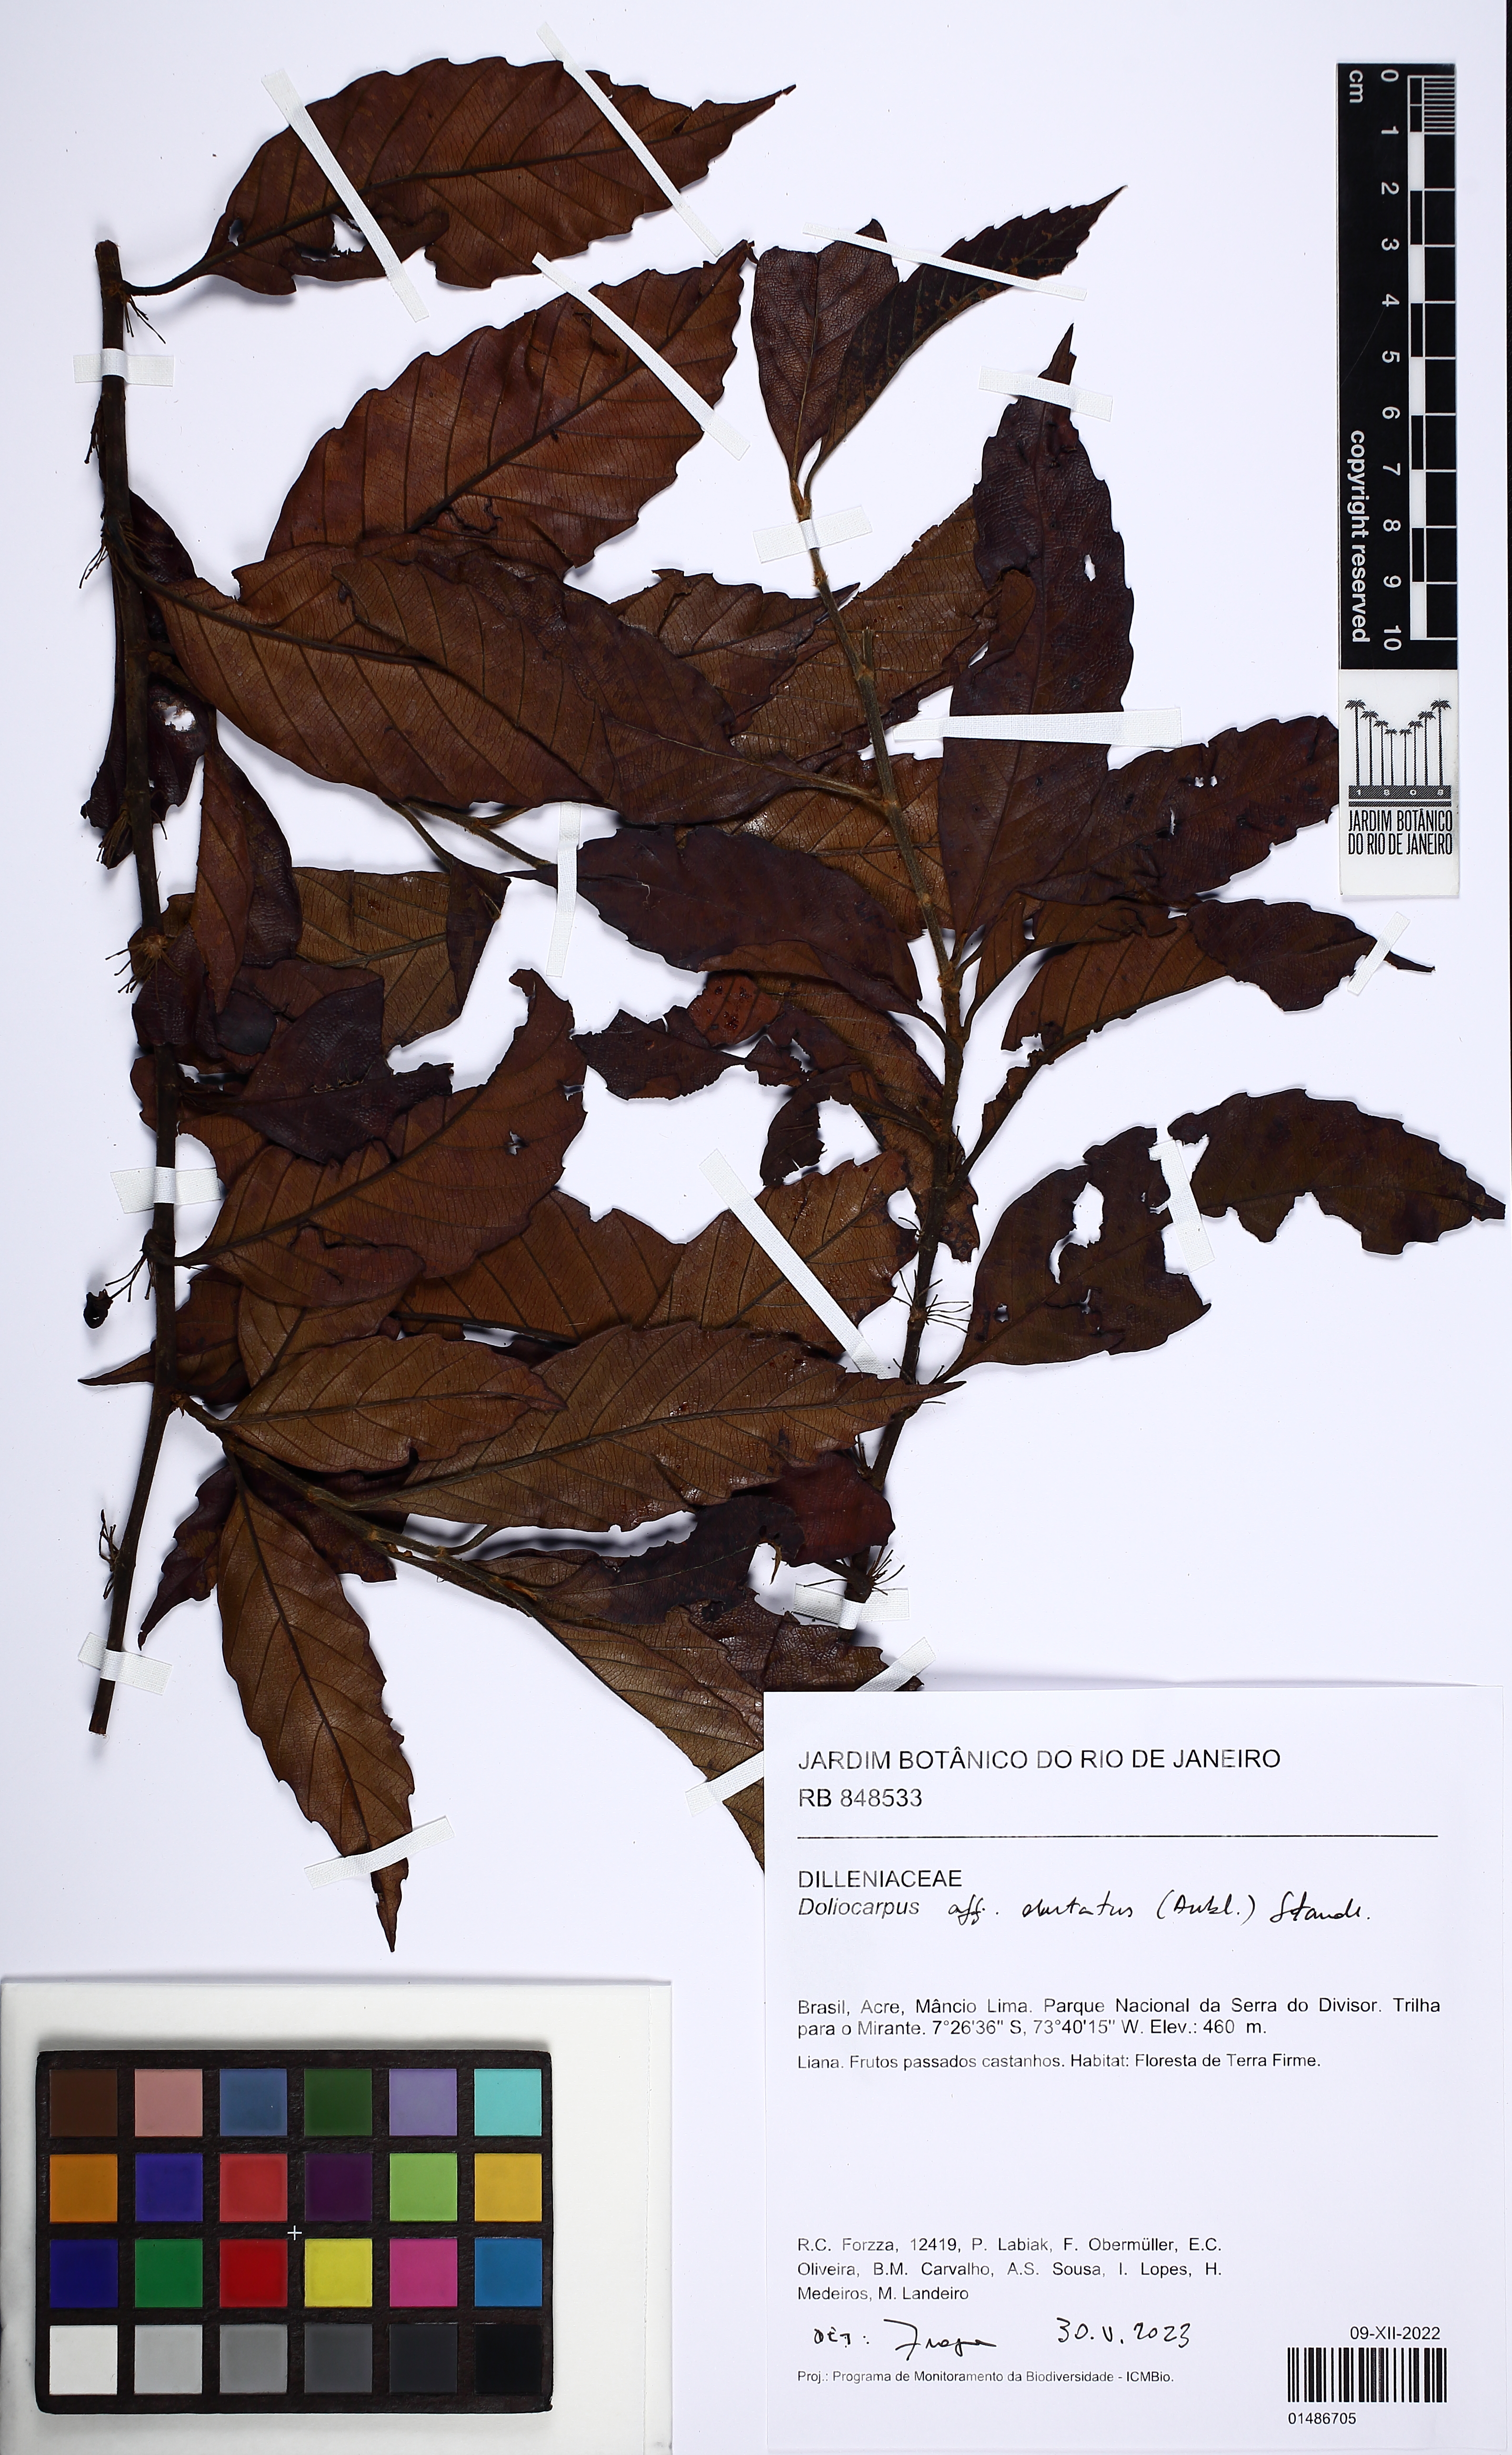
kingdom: Plantae
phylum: Tracheophyta
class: Magnoliopsida
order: Dilleniales
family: Dilleniaceae
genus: Doliocarpus
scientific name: Doliocarpus dentatus
